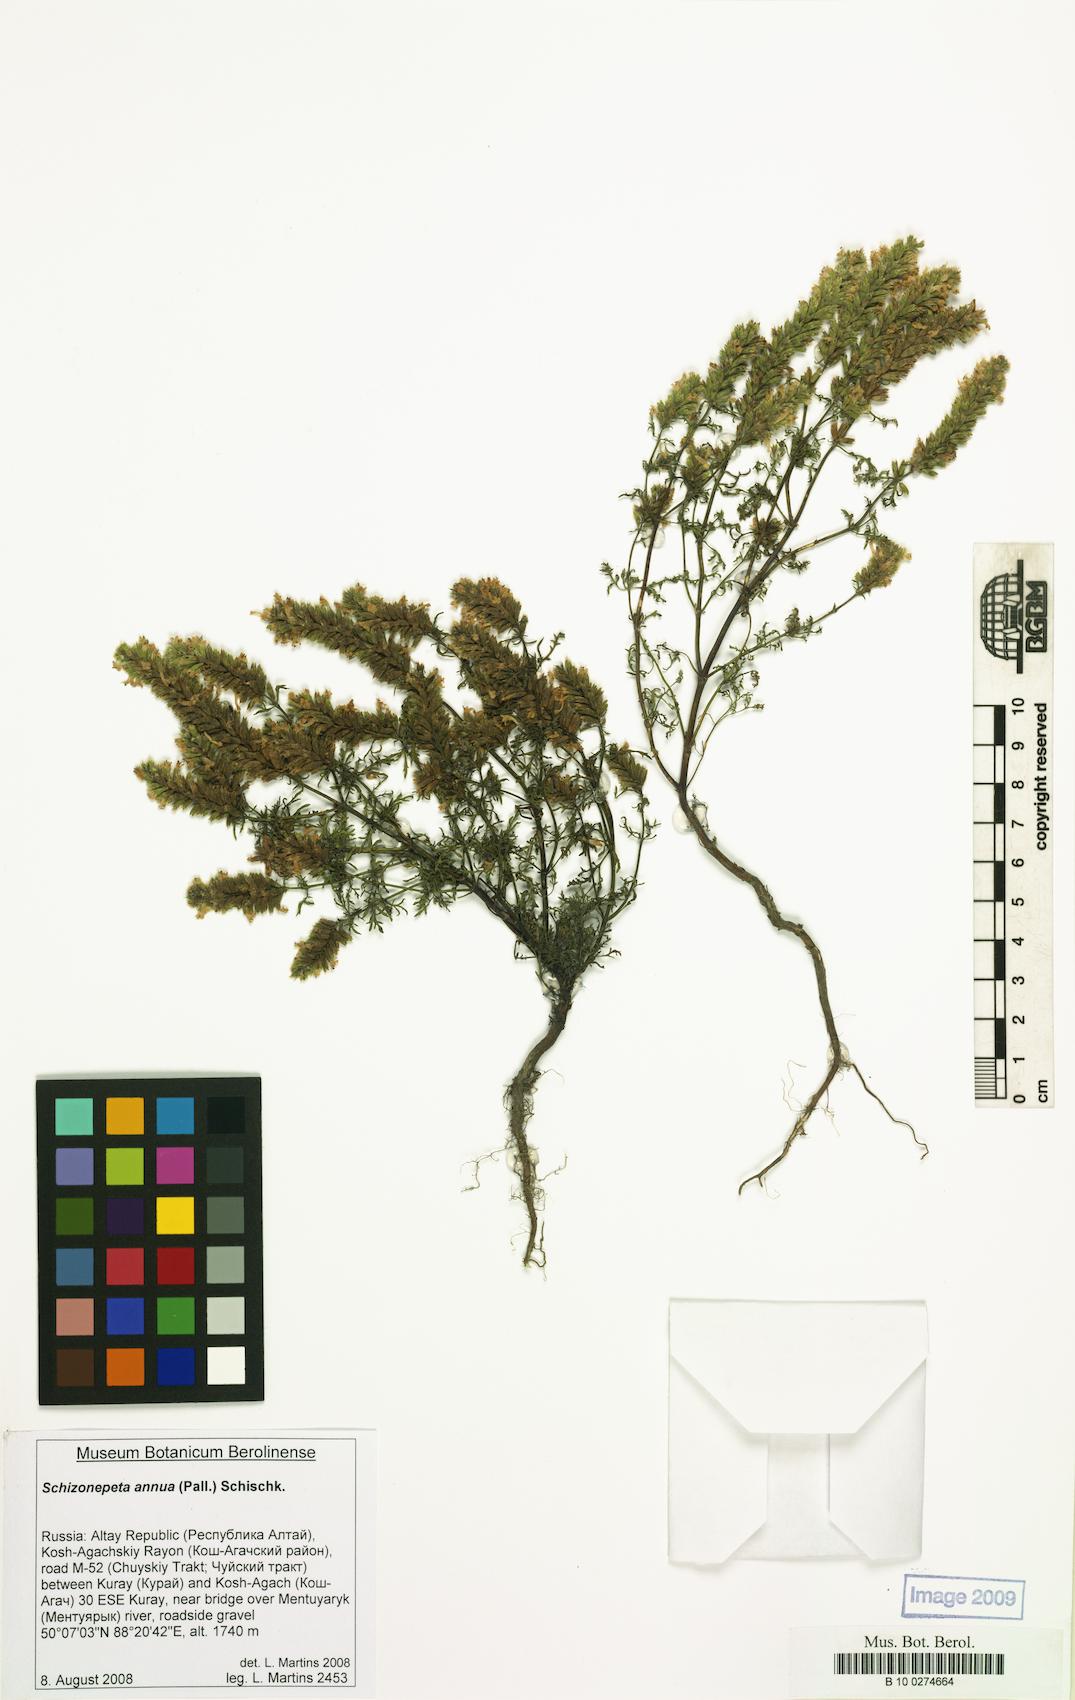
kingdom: Plantae
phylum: Tracheophyta
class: Magnoliopsida
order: Lamiales
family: Lamiaceae
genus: Nepeta
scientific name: Nepeta annua
